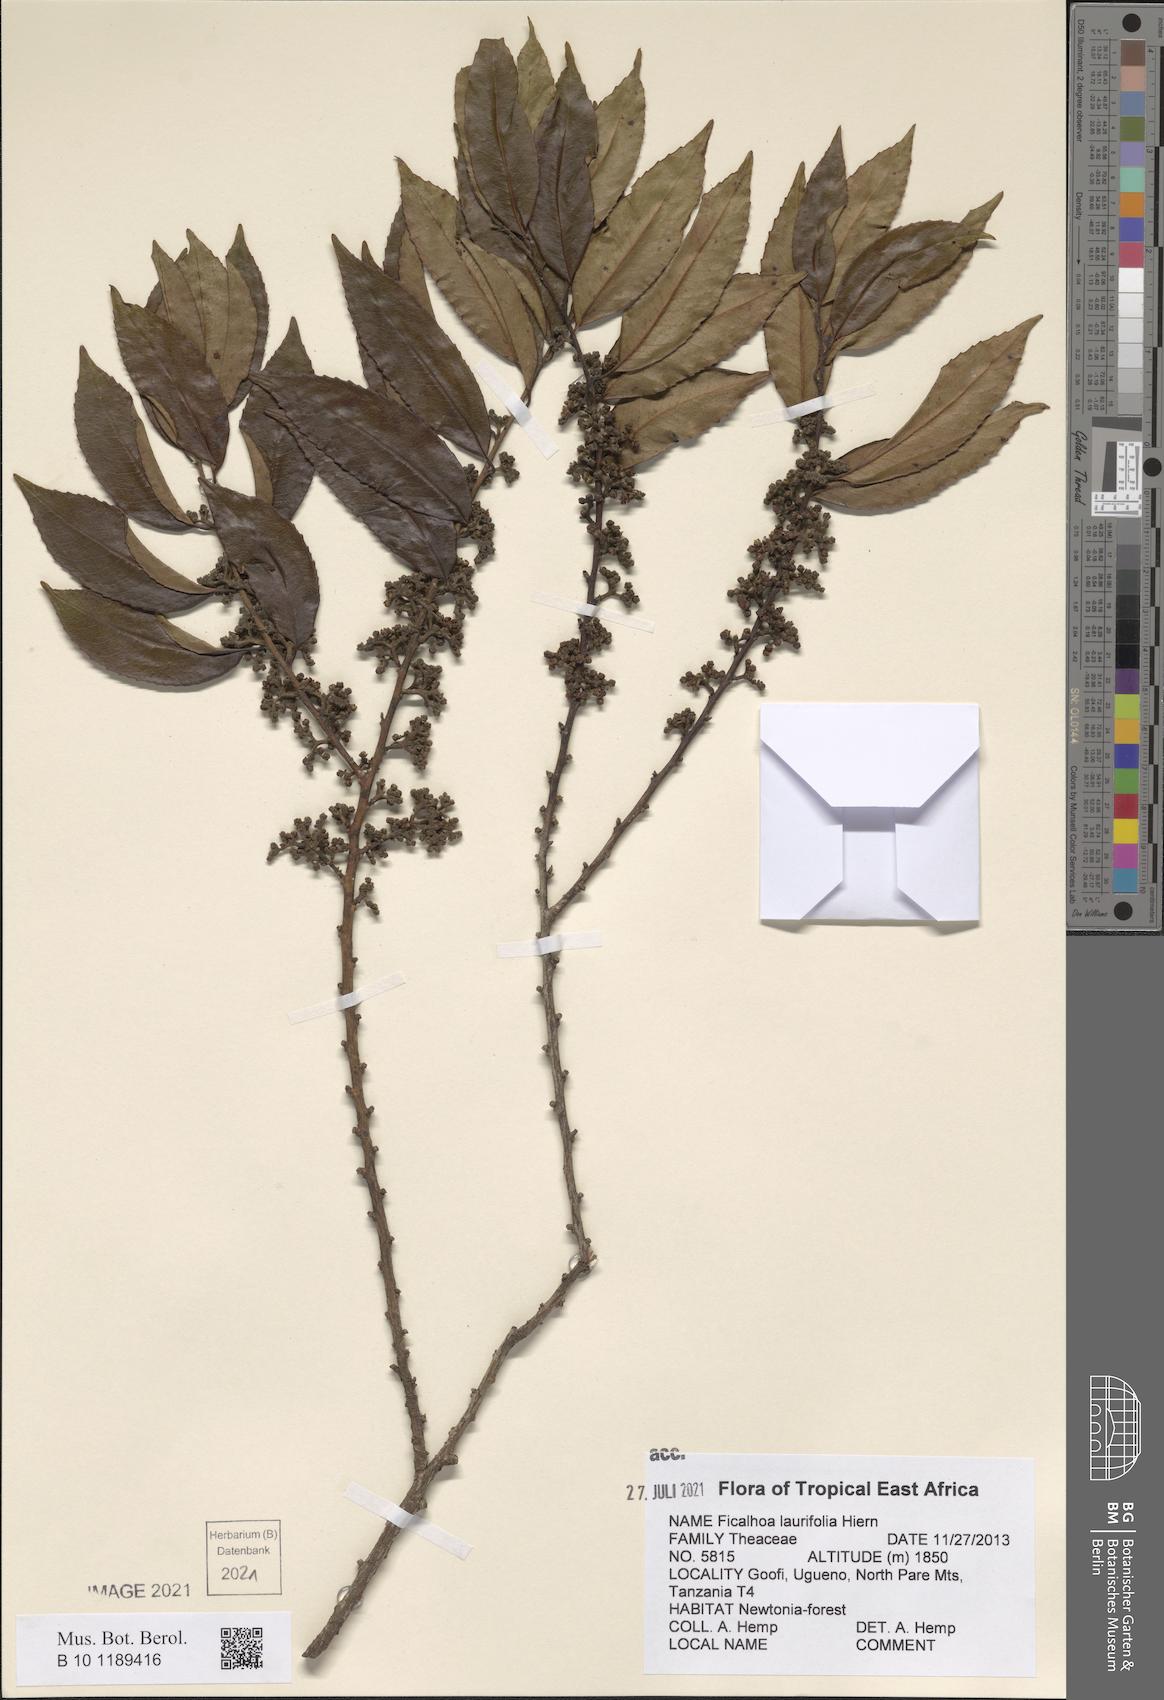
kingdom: Plantae
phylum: Tracheophyta
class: Magnoliopsida
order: Ericales
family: Sladeniaceae
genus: Ficalhoa
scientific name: Ficalhoa laurifolia
